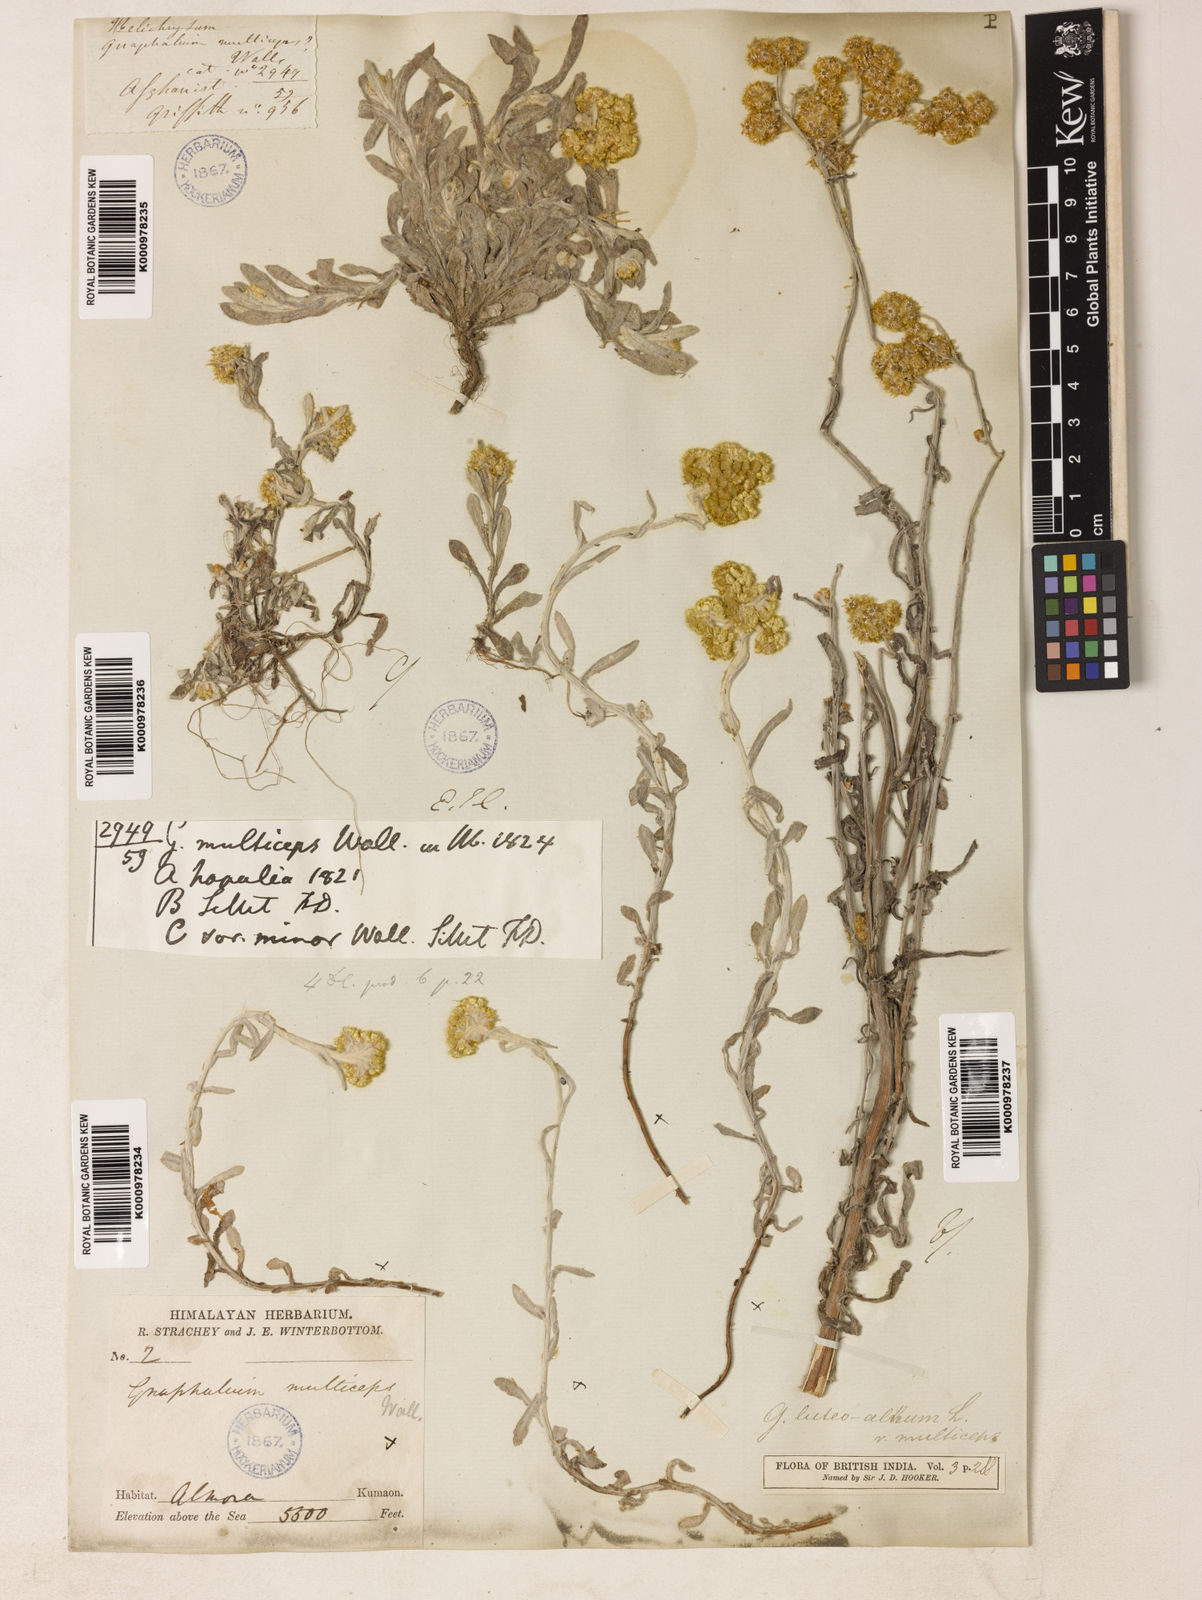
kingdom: Plantae
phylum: Tracheophyta
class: Magnoliopsida
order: Asterales
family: Asteraceae
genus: Helichrysum
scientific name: Helichrysum luteoalbum
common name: Daisy
